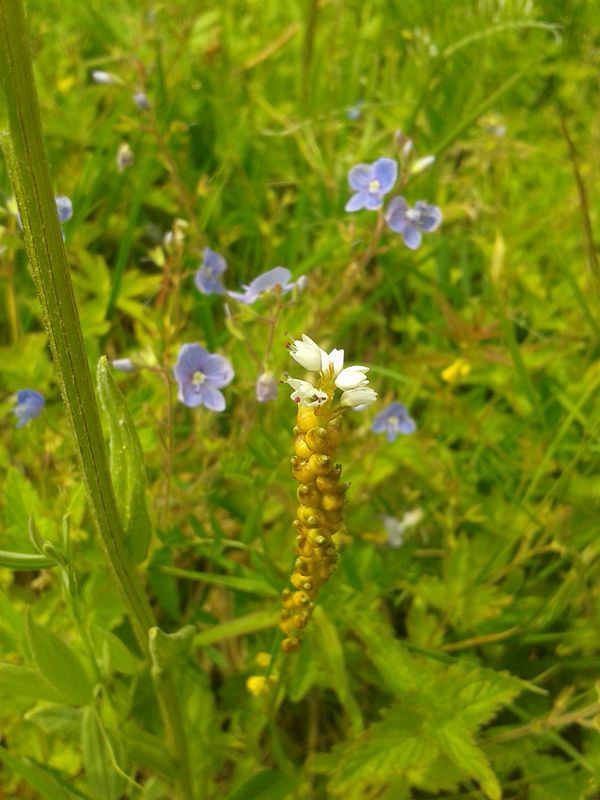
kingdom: Plantae
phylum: Tracheophyta
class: Magnoliopsida
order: Caryophyllales
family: Polygonaceae
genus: Bistorta
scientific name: Bistorta vivipara
